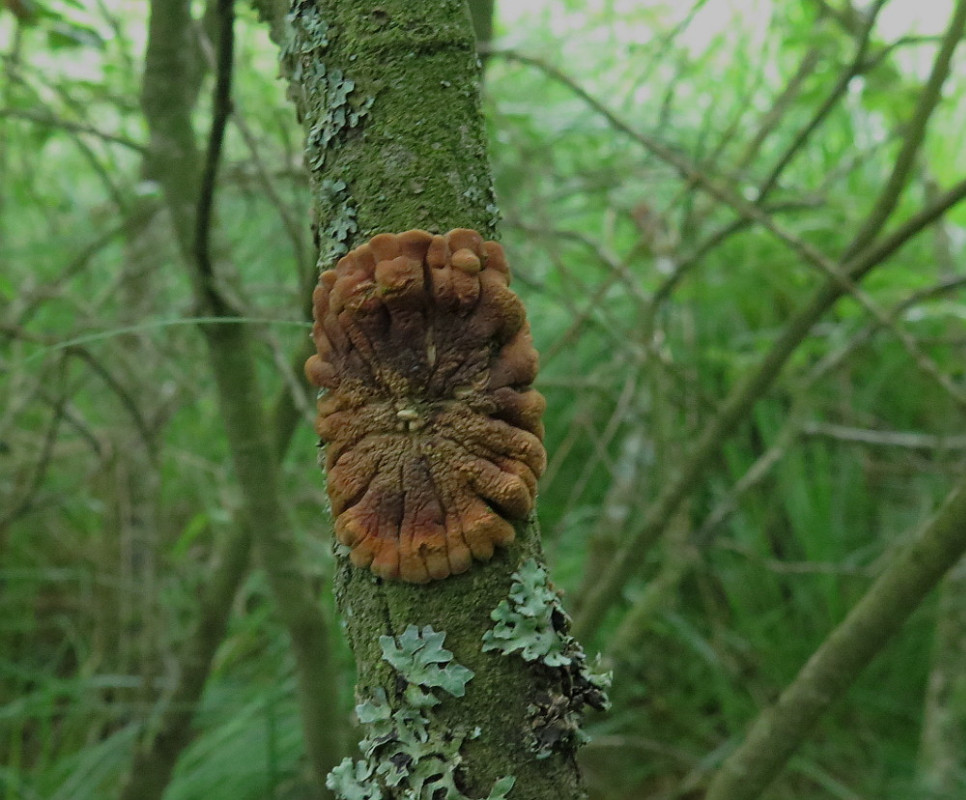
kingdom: Fungi
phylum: Ascomycota
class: Sordariomycetes
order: Hypocreales
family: Hypocreaceae
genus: Hypocreopsis
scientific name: Hypocreopsis lichenoides
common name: pilfinger
